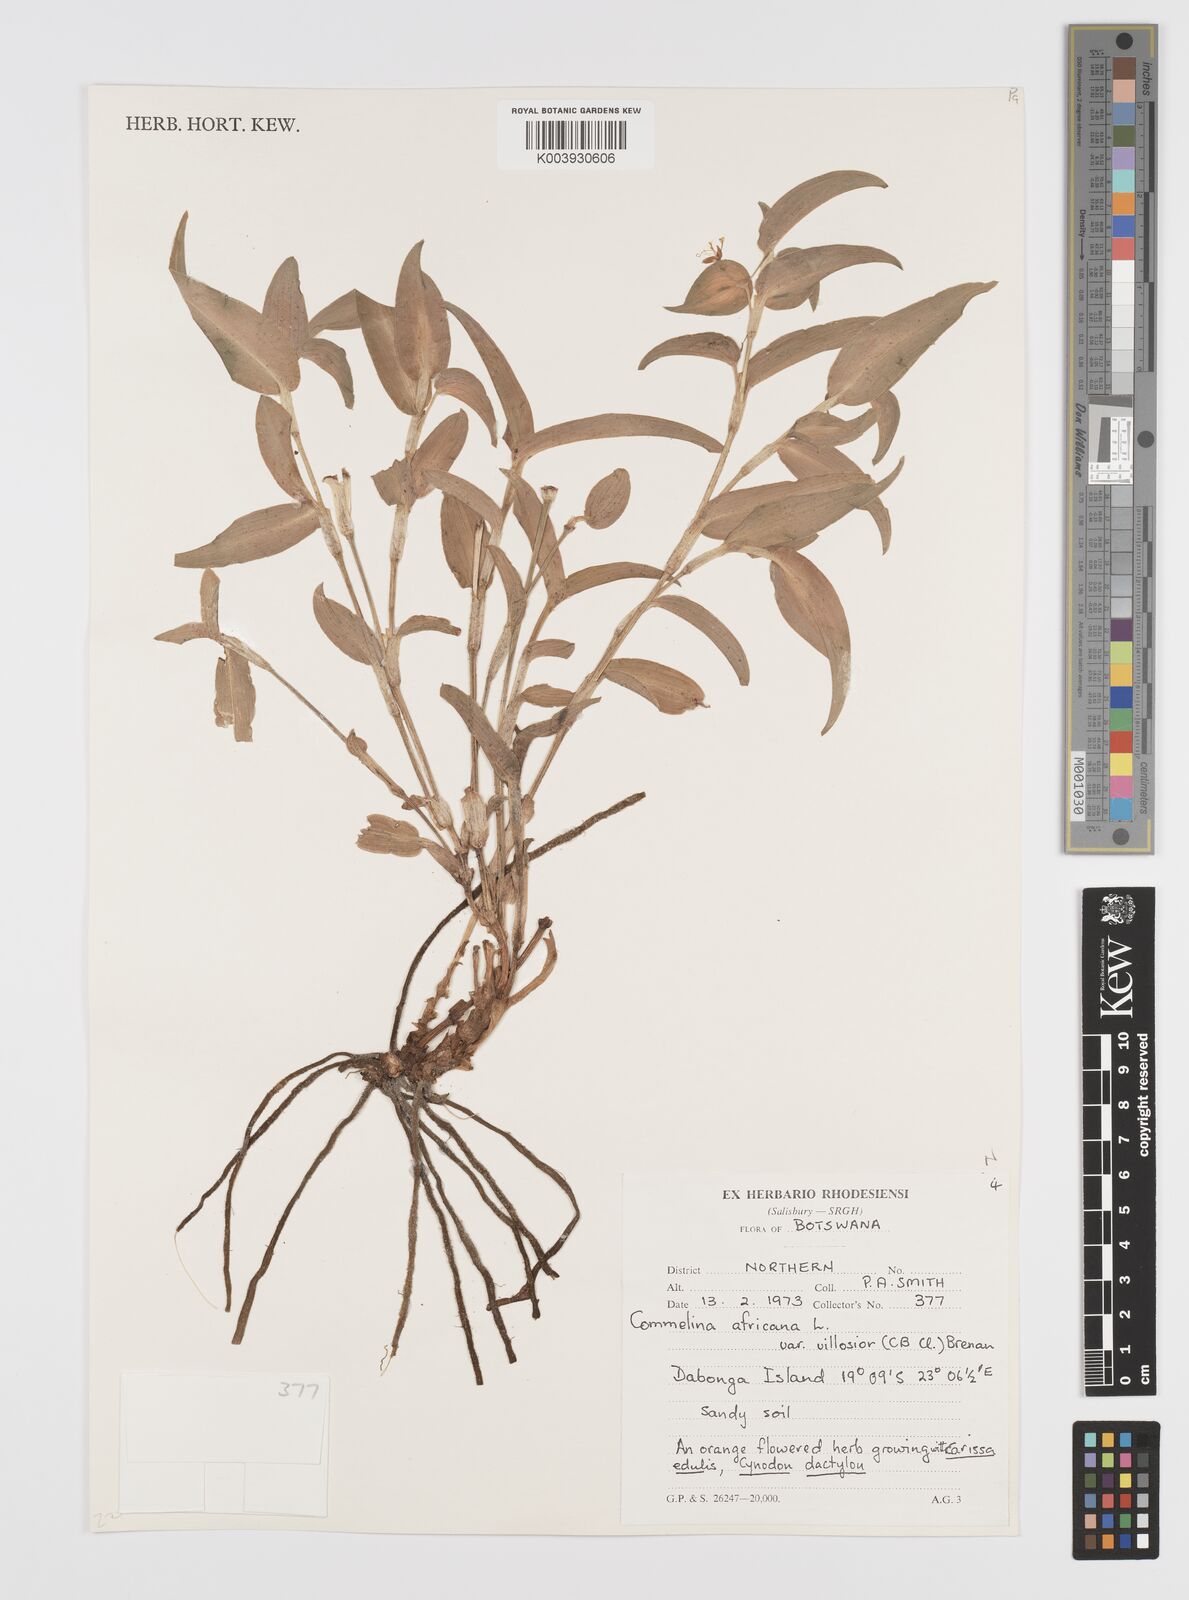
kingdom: Plantae
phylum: Tracheophyta
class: Liliopsida
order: Commelinales
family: Commelinaceae
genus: Commelina
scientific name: Commelina africana
